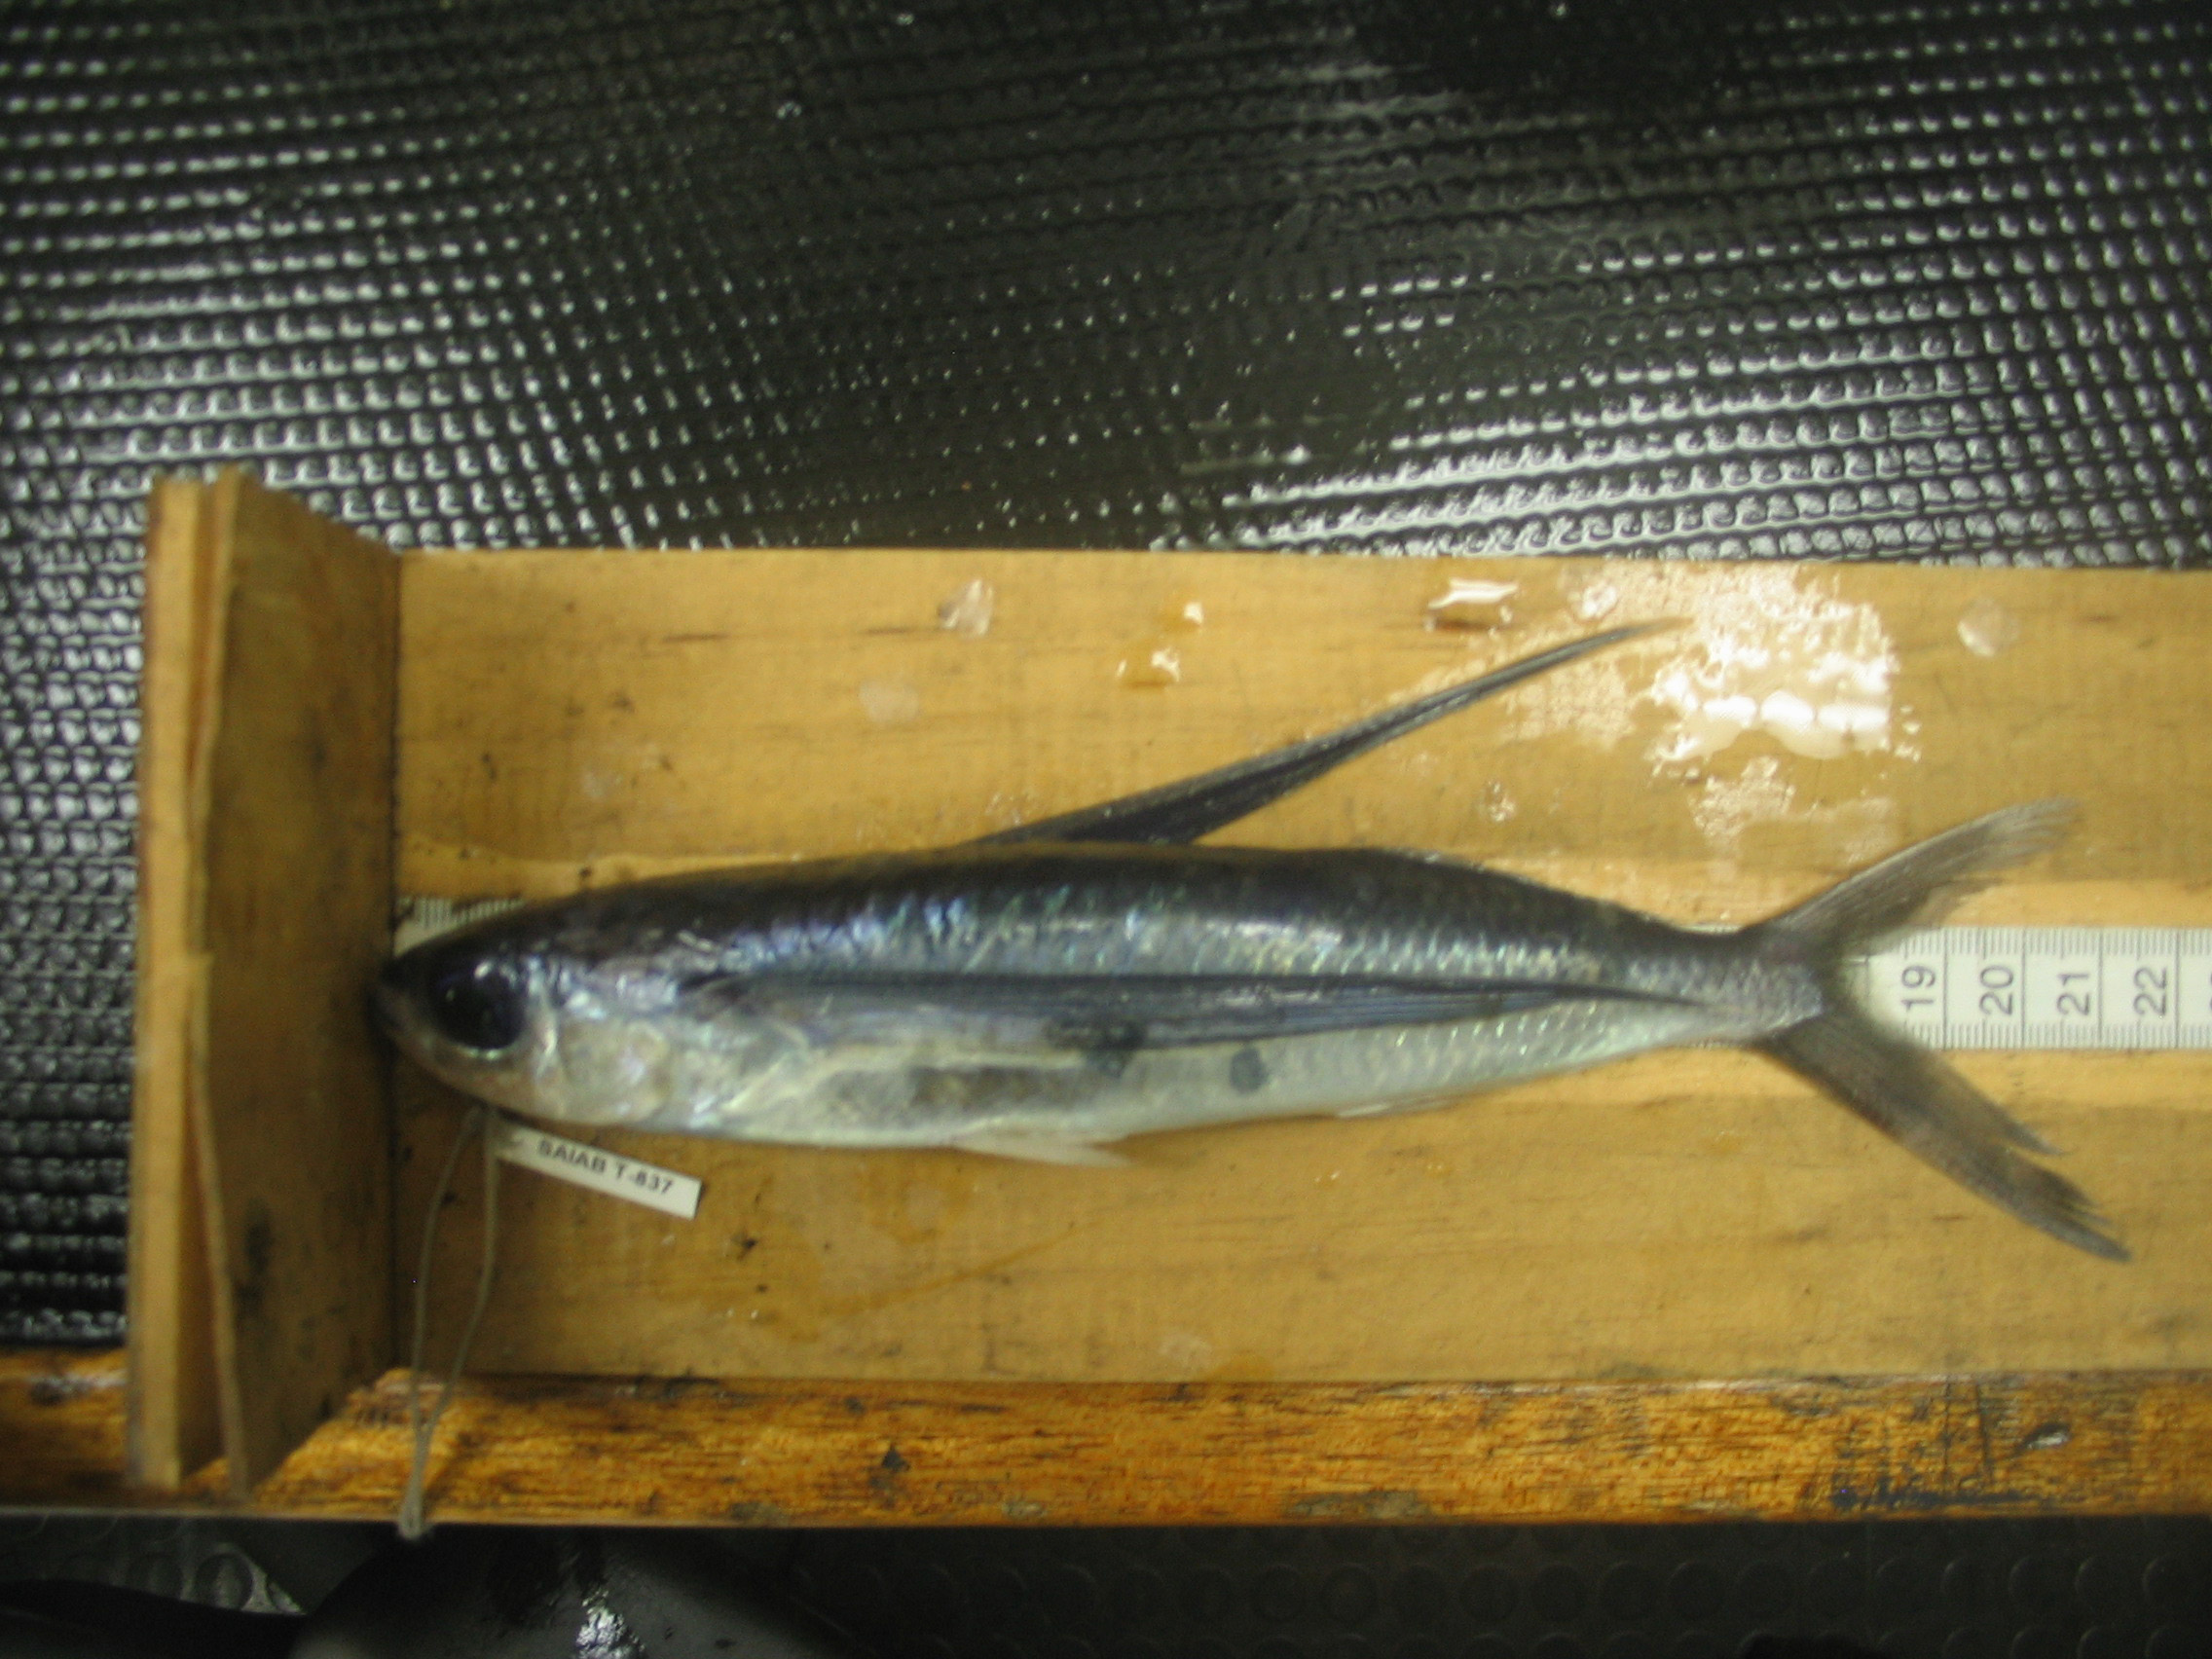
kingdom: Animalia
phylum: Chordata
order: Beloniformes
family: Exocoetidae
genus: Exocoetus
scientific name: Exocoetus volitans
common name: Tropical two-wing flyingfish
